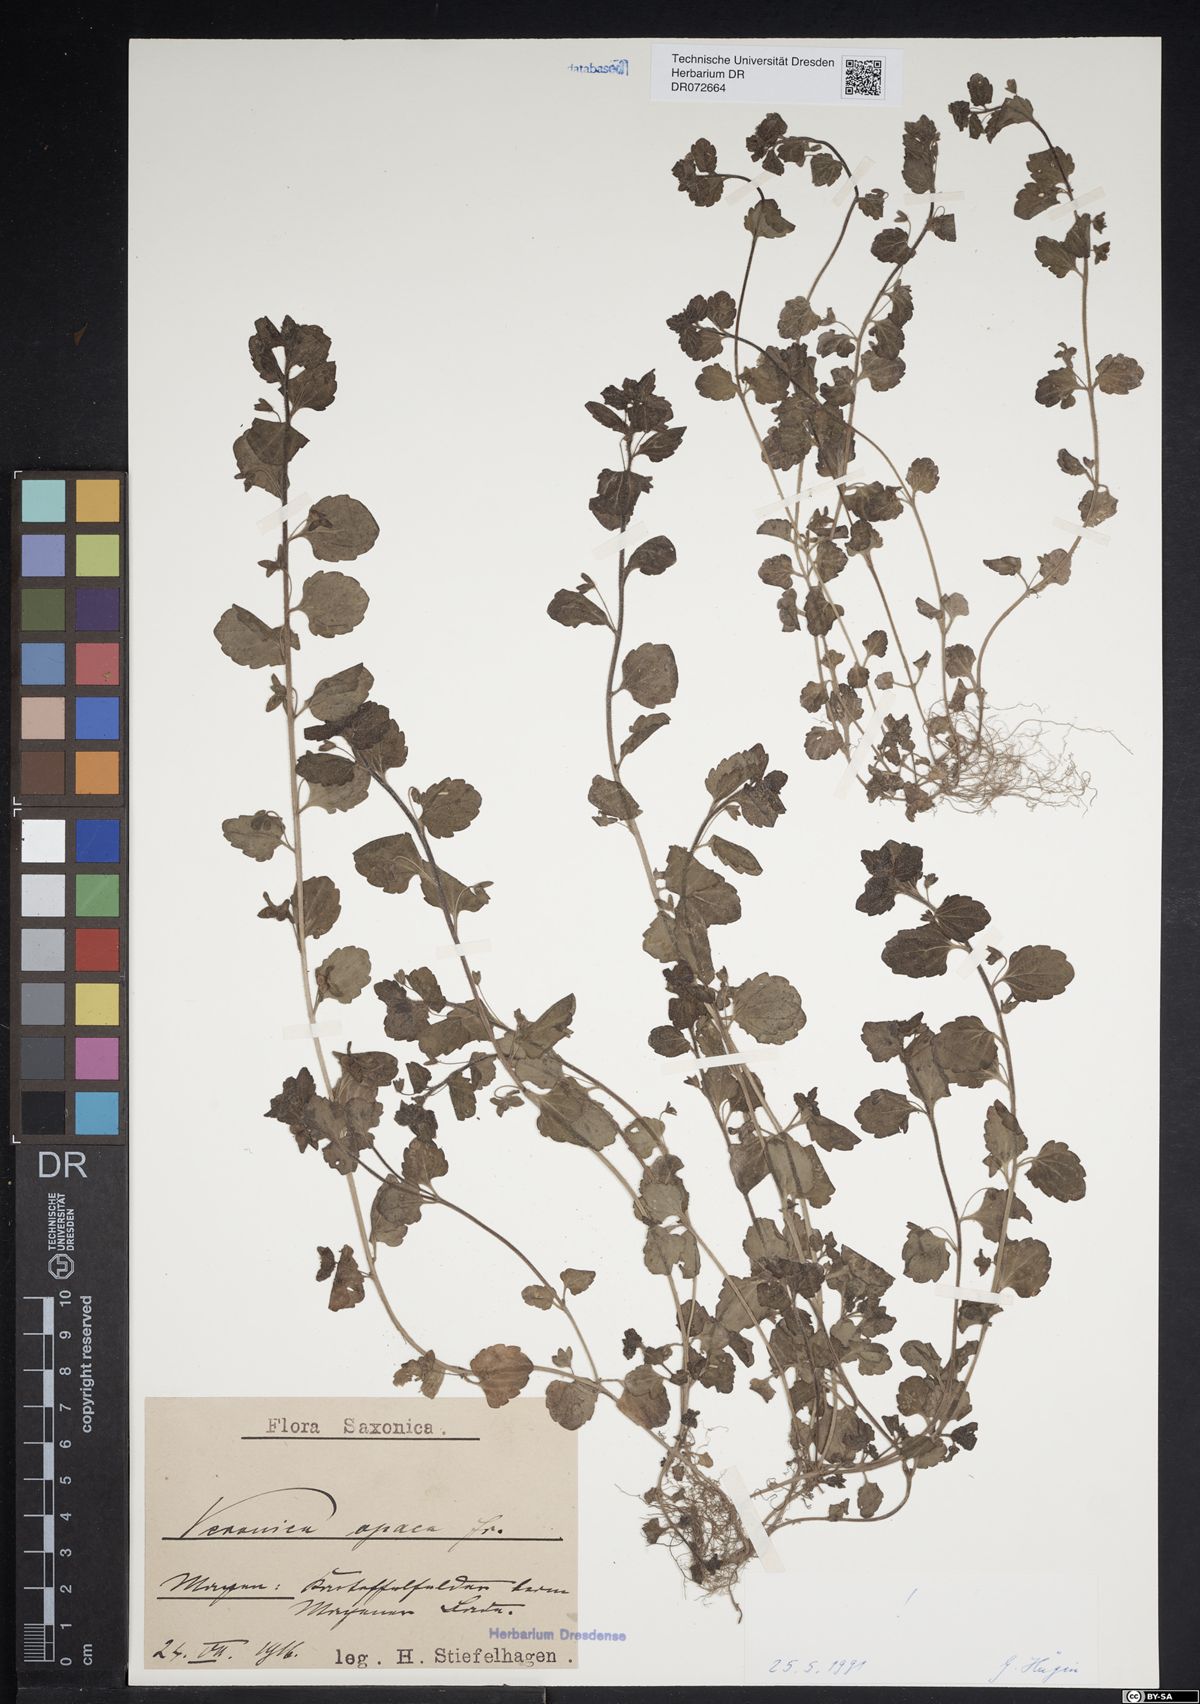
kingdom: Plantae
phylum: Tracheophyta
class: Magnoliopsida
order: Lamiales
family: Plantaginaceae
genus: Veronica
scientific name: Veronica opaca
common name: Dark speedwell
